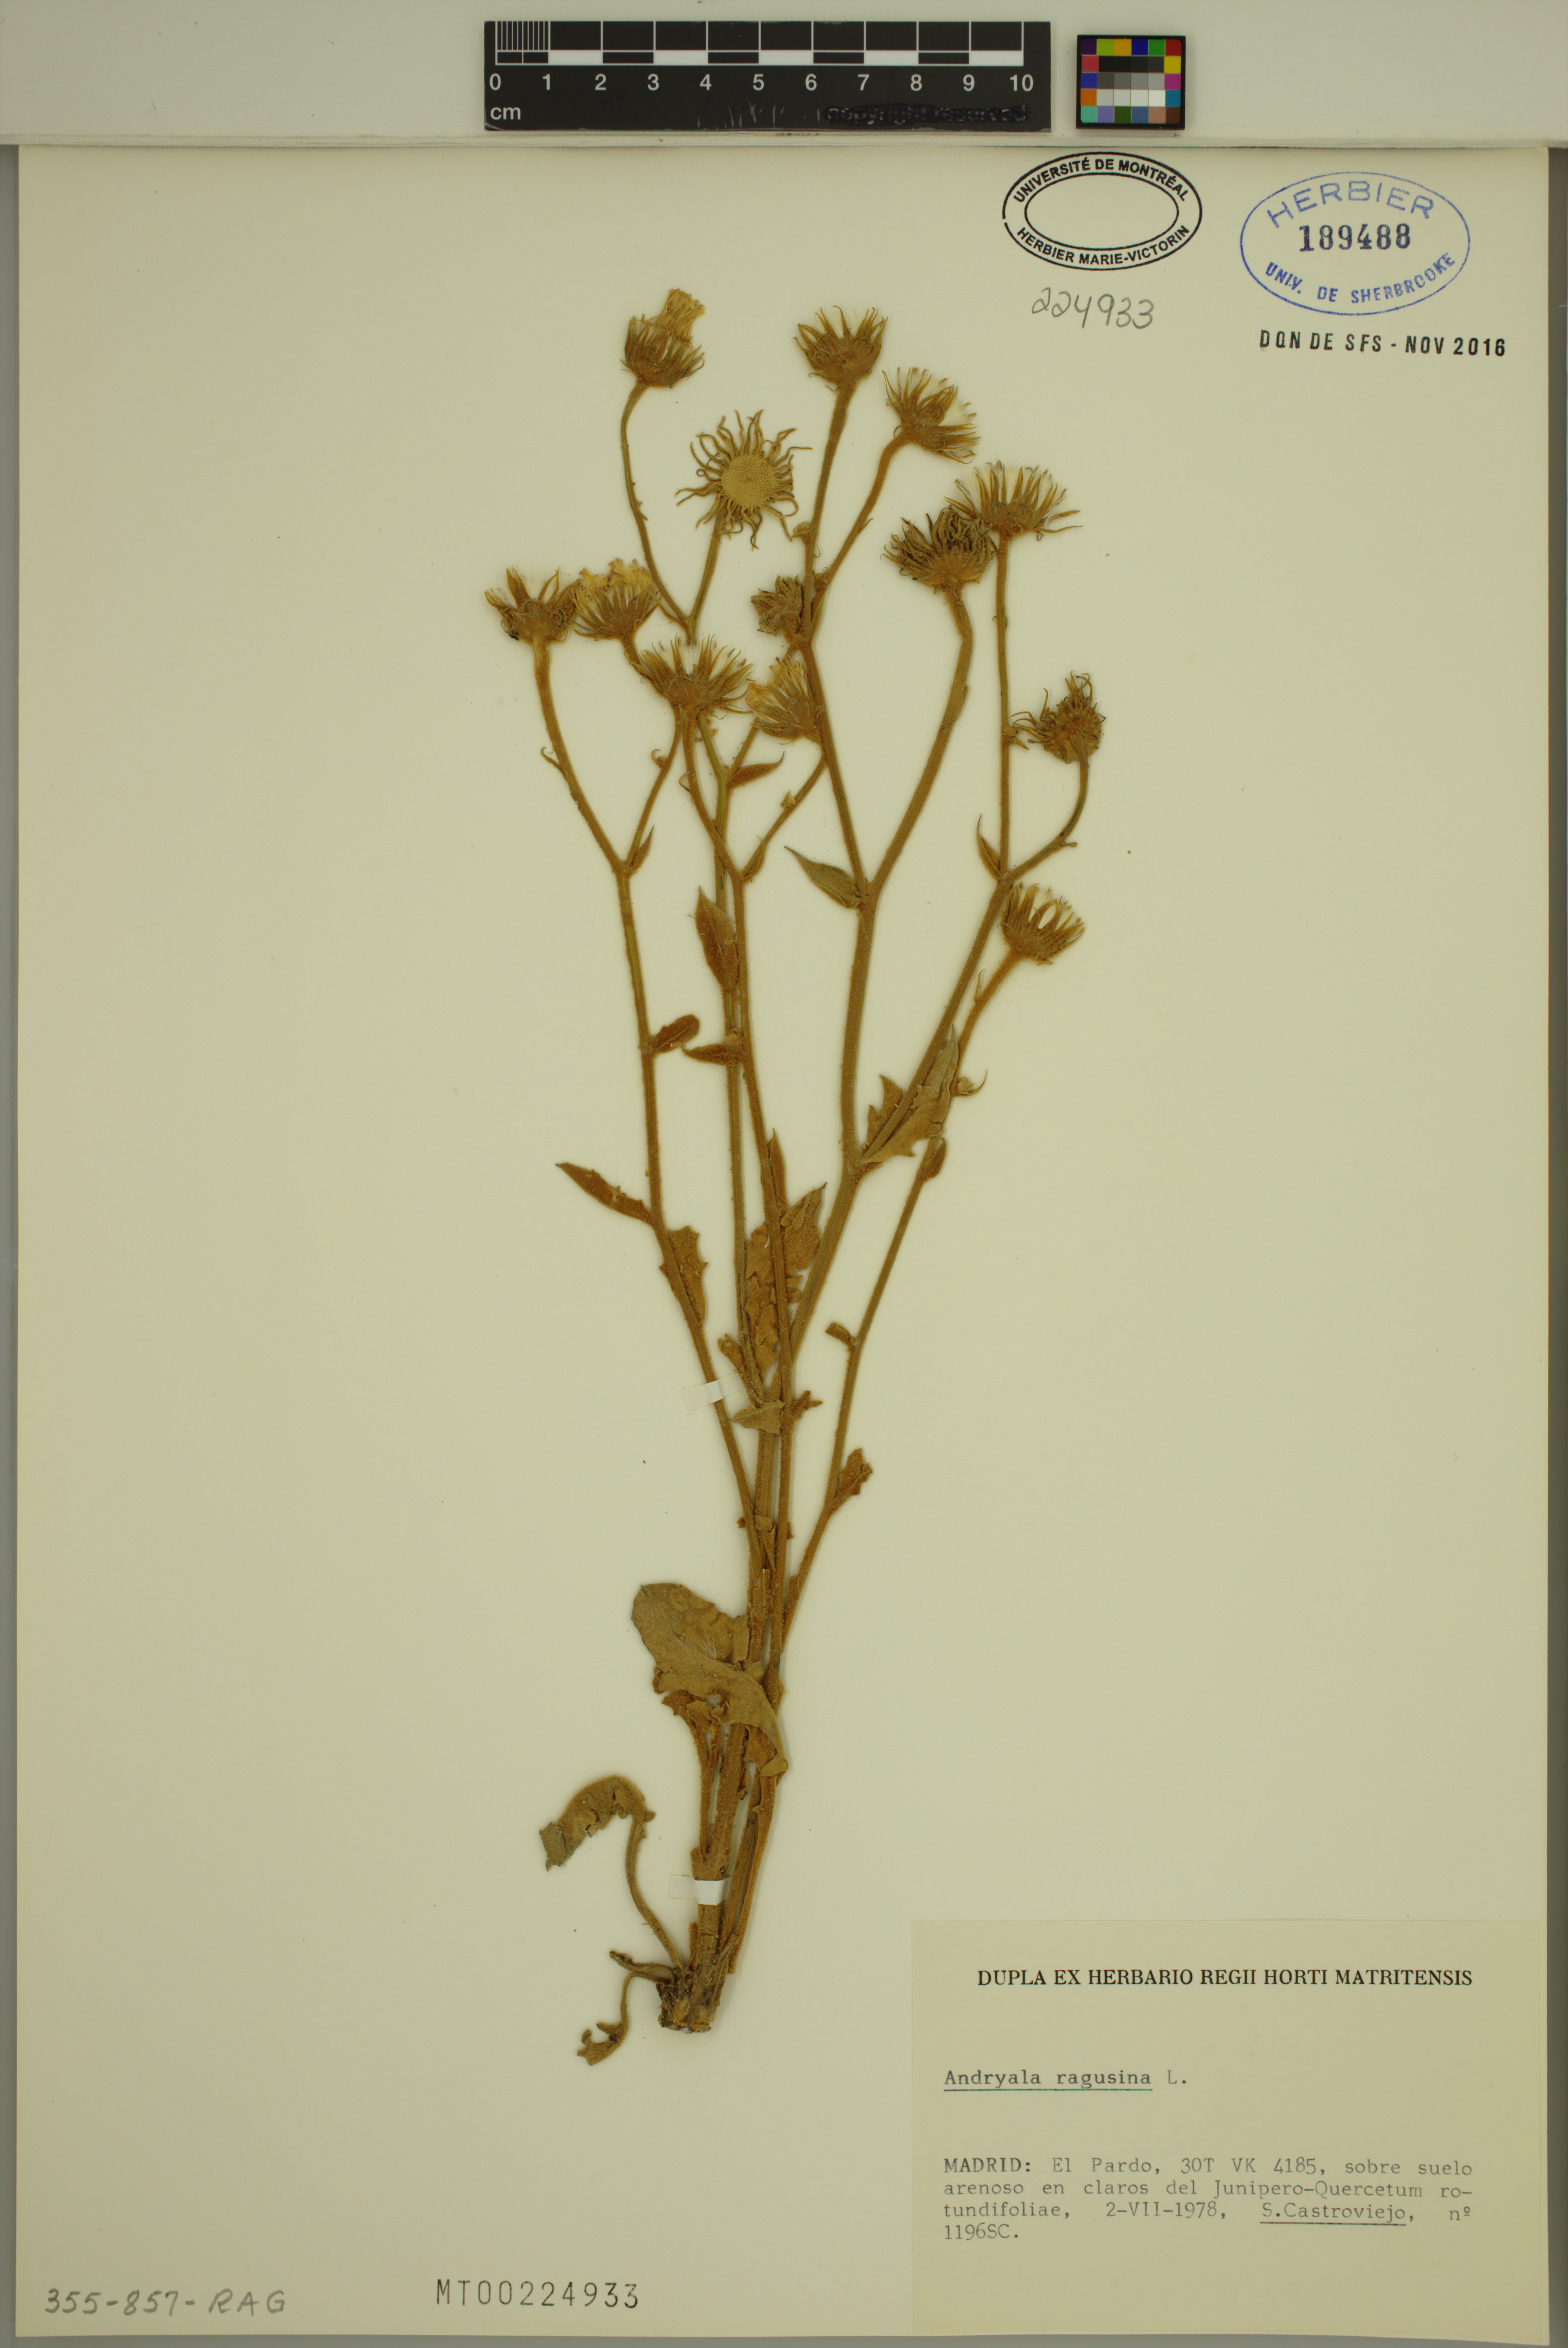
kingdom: Plantae
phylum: Tracheophyta
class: Magnoliopsida
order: Asterales
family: Asteraceae
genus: Andryala
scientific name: Andryala ragusina
